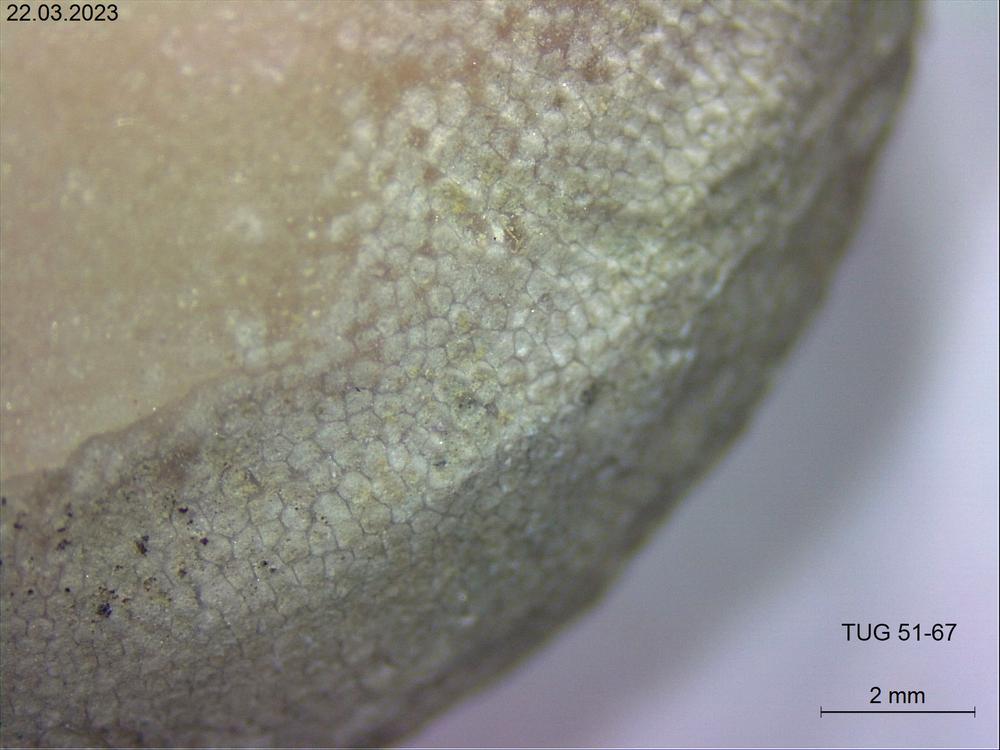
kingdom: Animalia
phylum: Bryozoa
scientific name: Bryozoa
